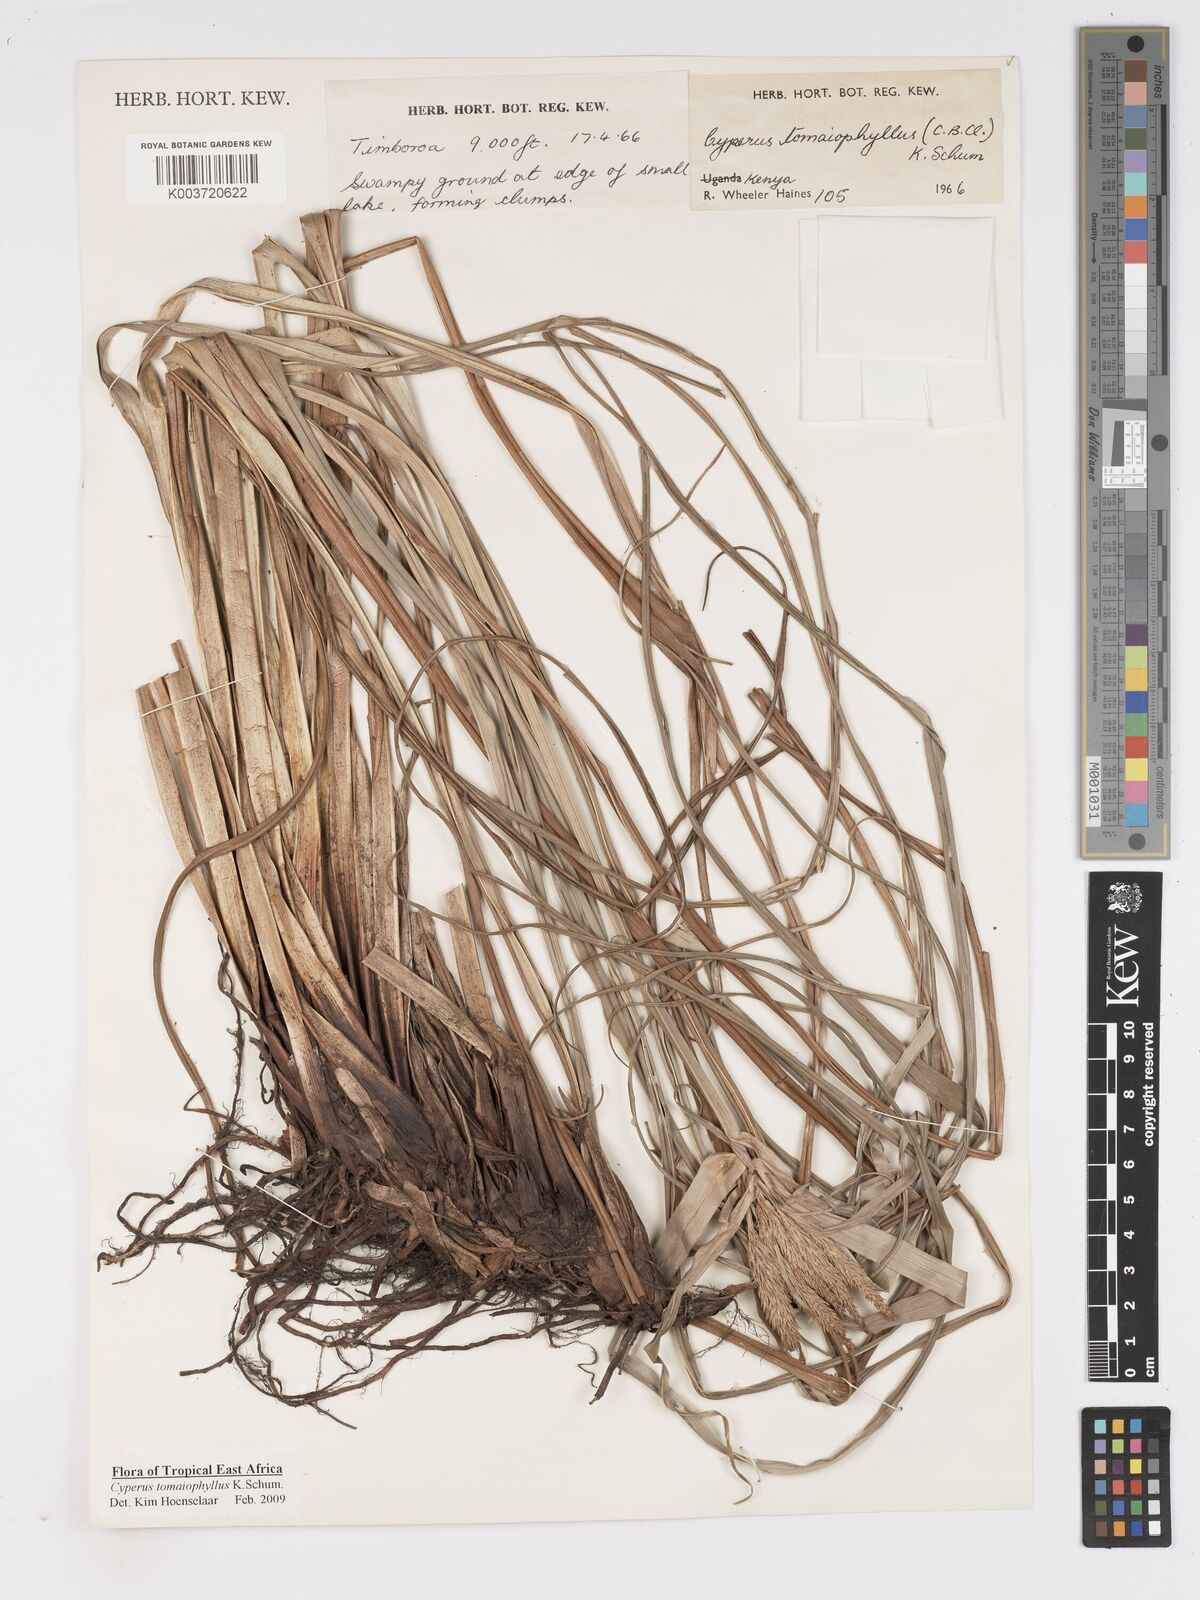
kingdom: Plantae
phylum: Tracheophyta
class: Liliopsida
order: Poales
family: Cyperaceae
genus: Cyperus
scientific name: Cyperus tomaiophyllus
